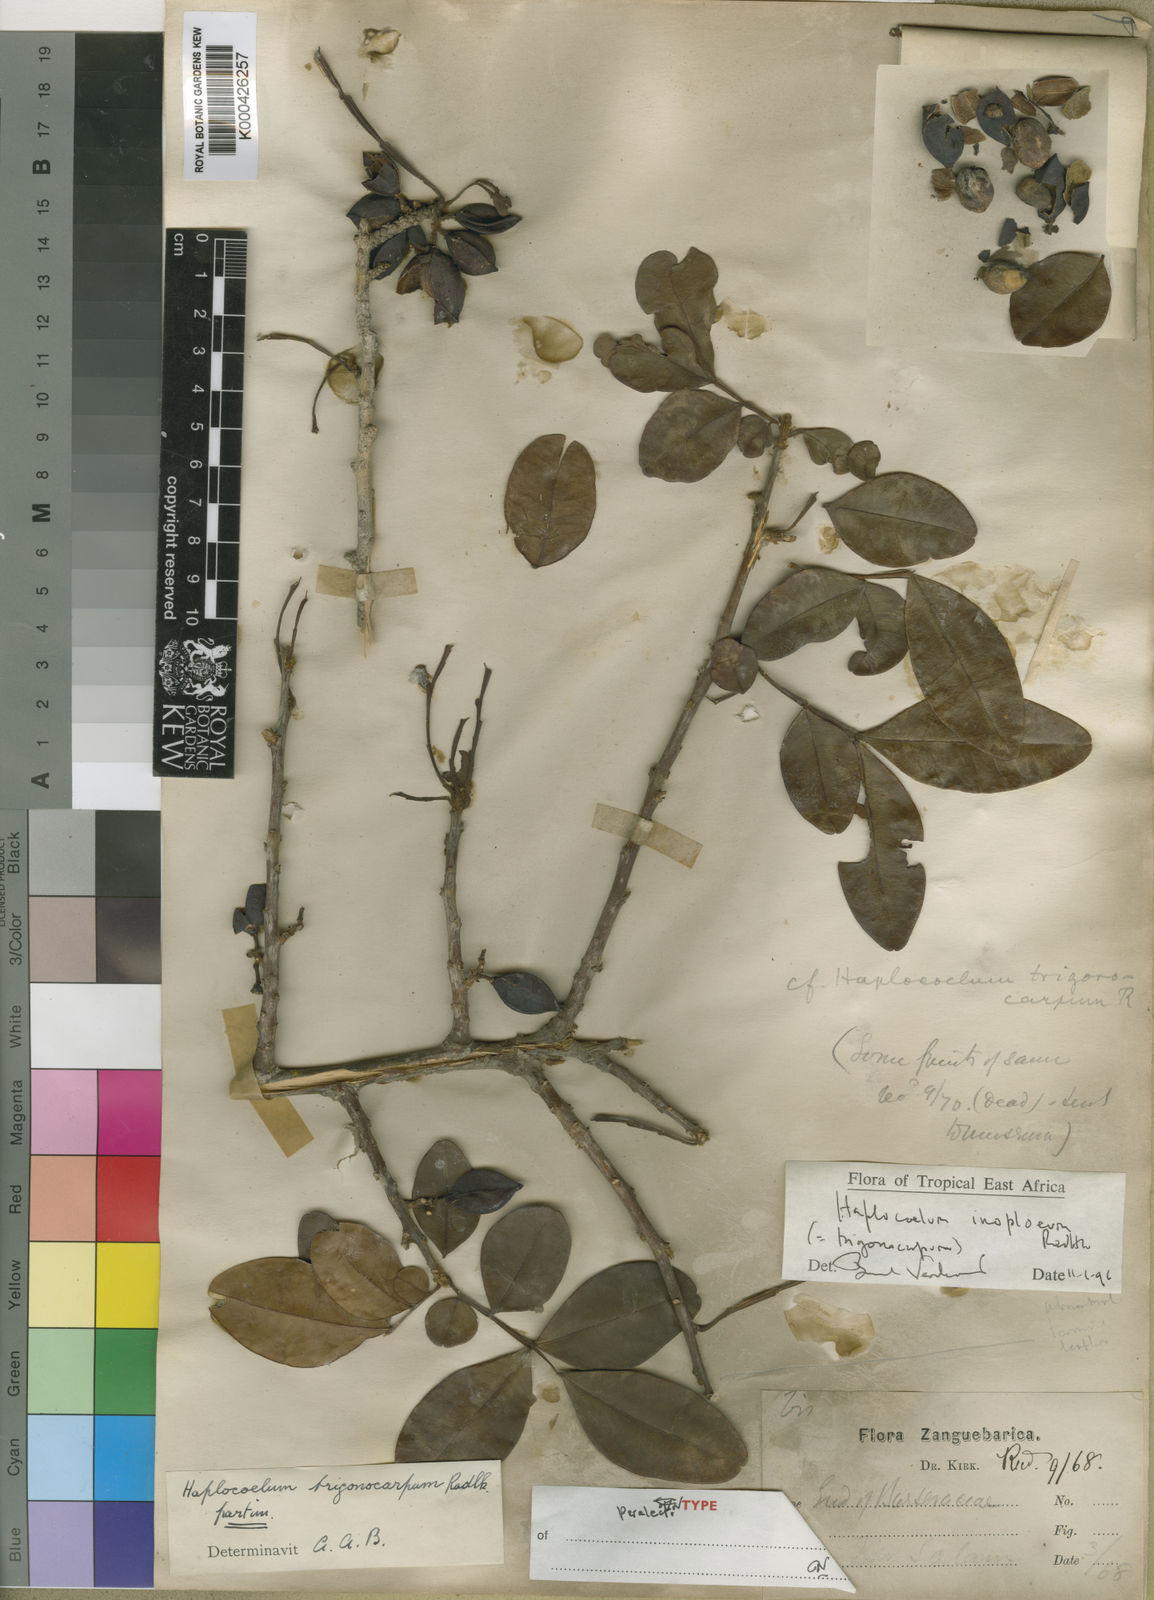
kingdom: Plantae
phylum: Tracheophyta
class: Magnoliopsida
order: Sapindales
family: Sapindaceae
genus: Haplocoelum
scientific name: Haplocoelum inoploeum
